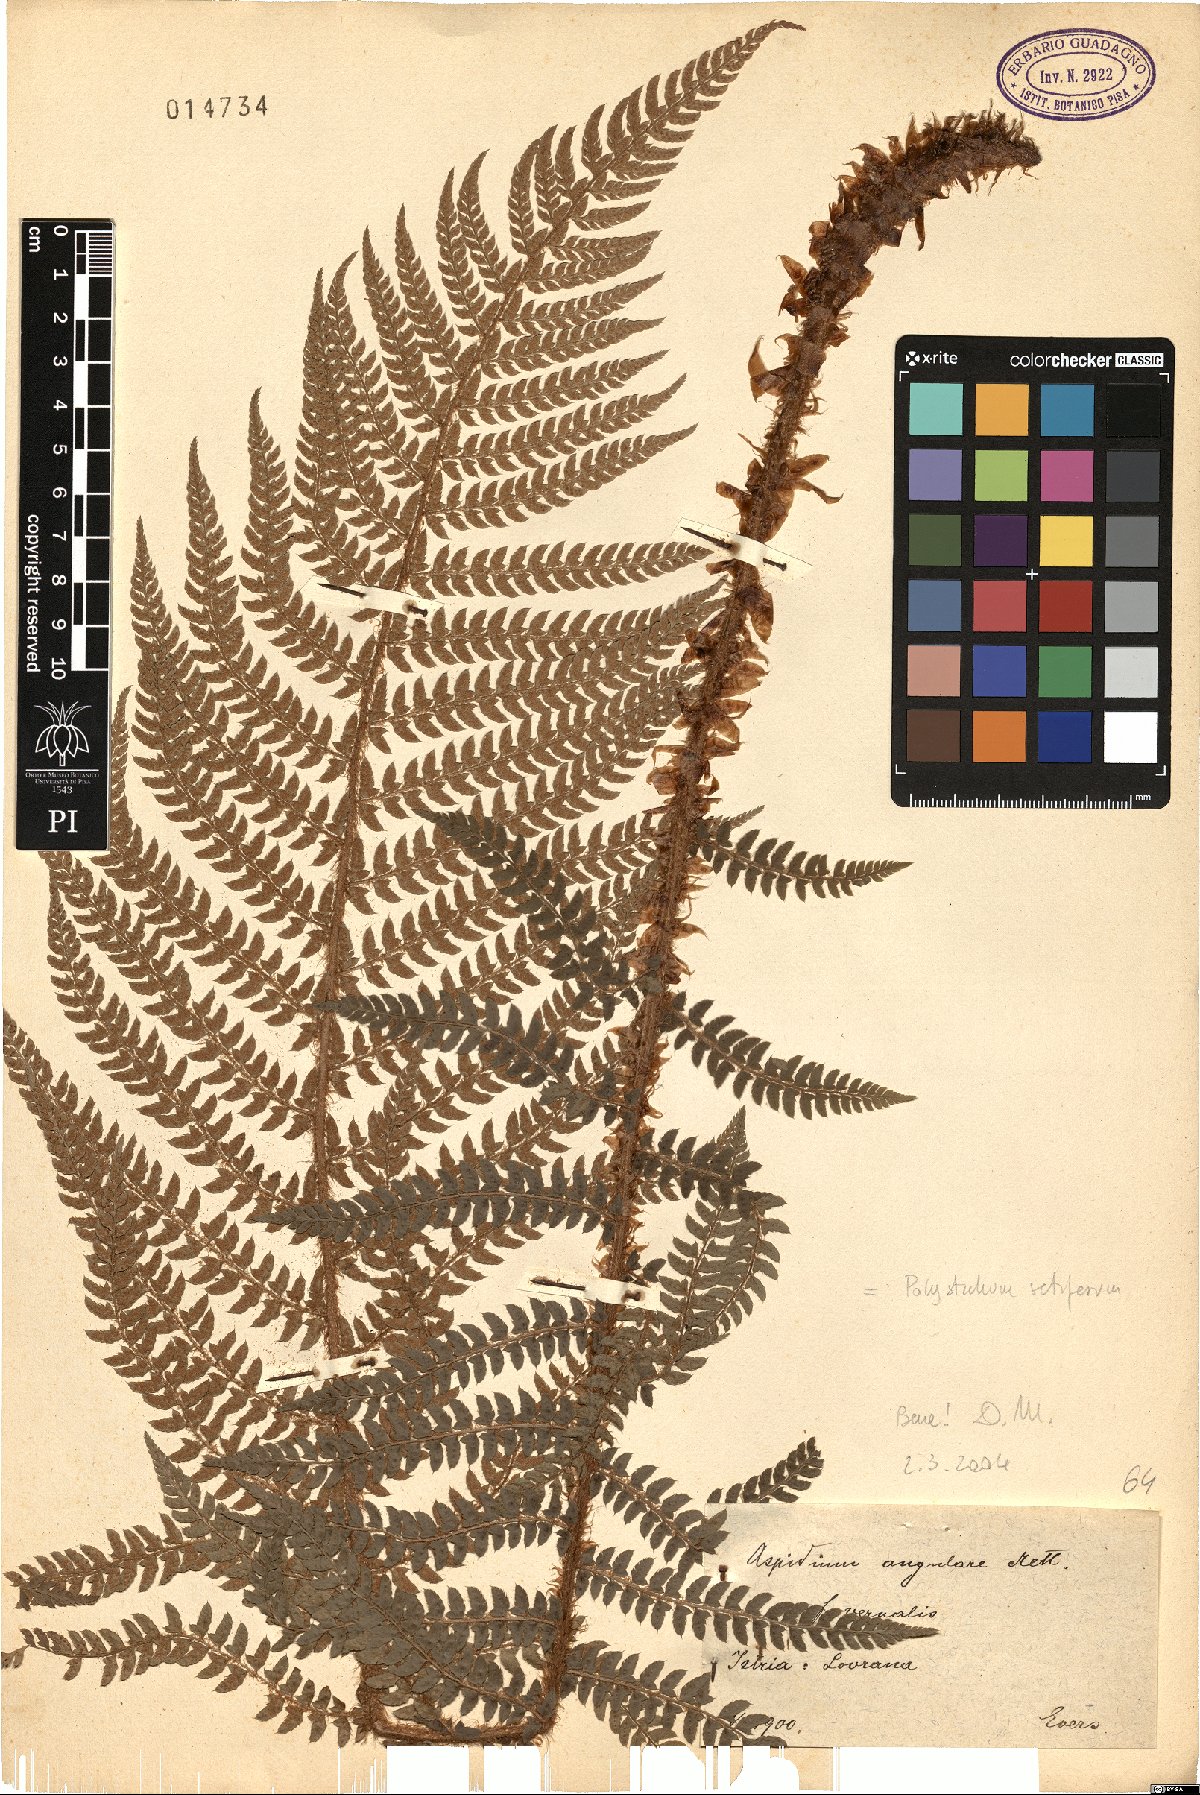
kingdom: Plantae
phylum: Tracheophyta
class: Polypodiopsida
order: Polypodiales
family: Dryopteridaceae
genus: Polystichum
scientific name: Polystichum setiferum
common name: Soft shield-fern
